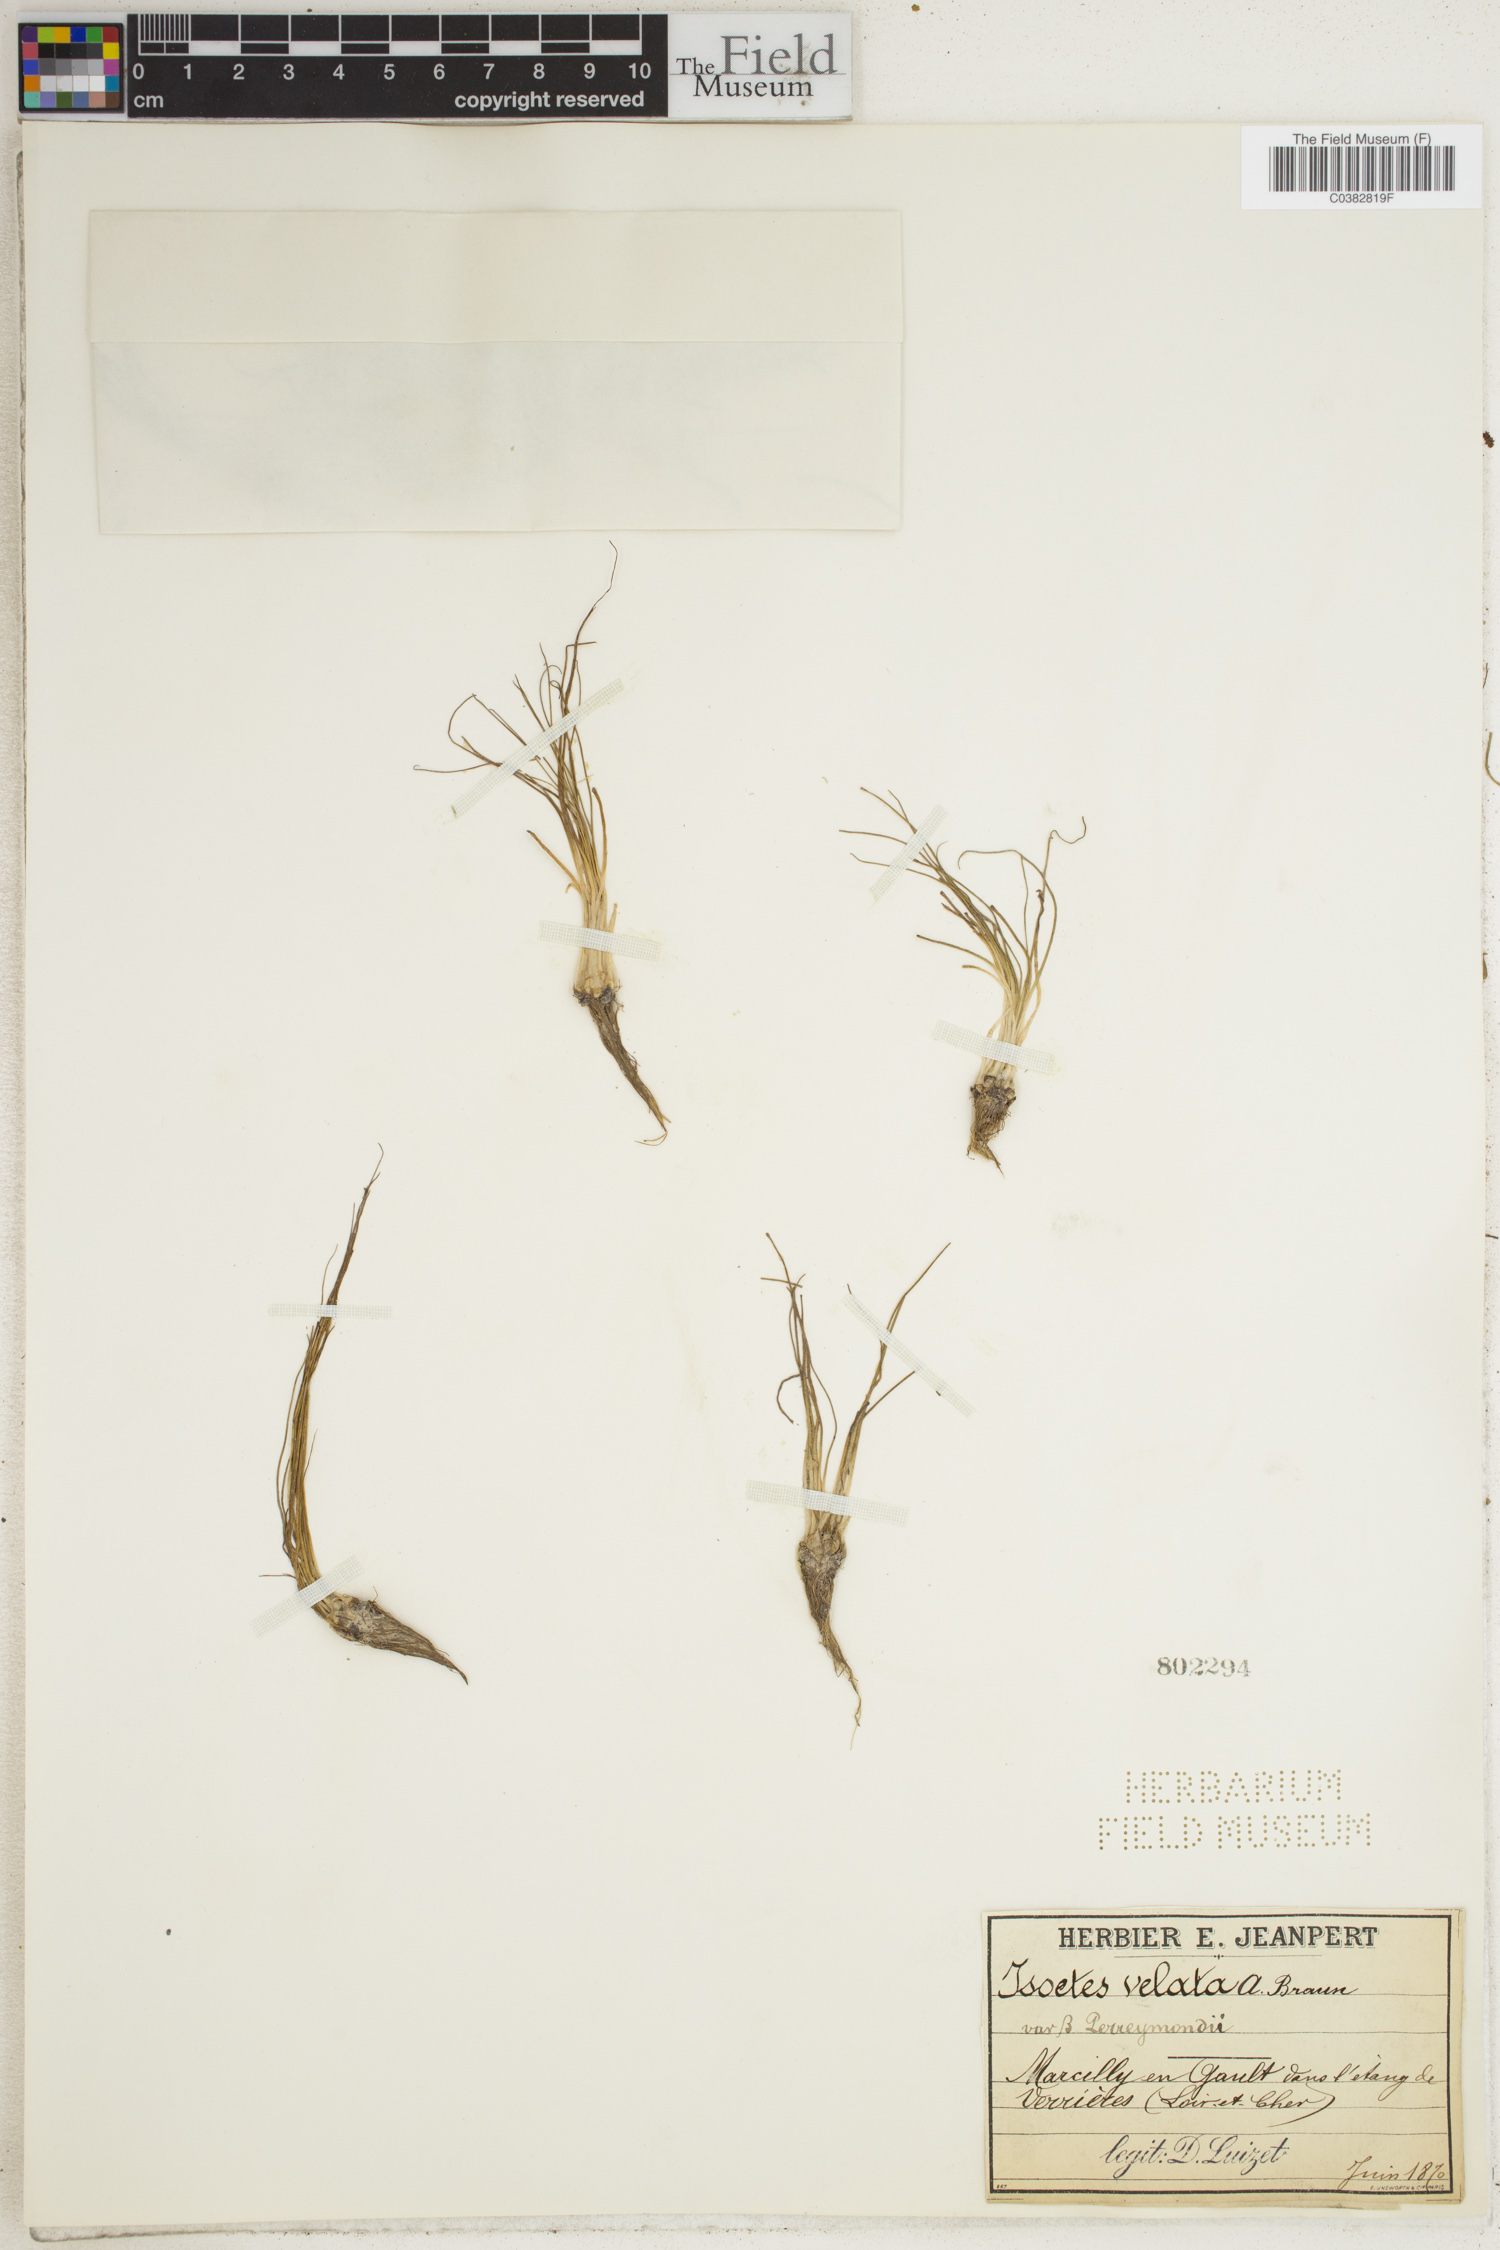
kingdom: Plantae
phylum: Tracheophyta
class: Lycopodiopsida
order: Isoetales
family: Isoetaceae
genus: Isoetes
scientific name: Isoetes longissima
